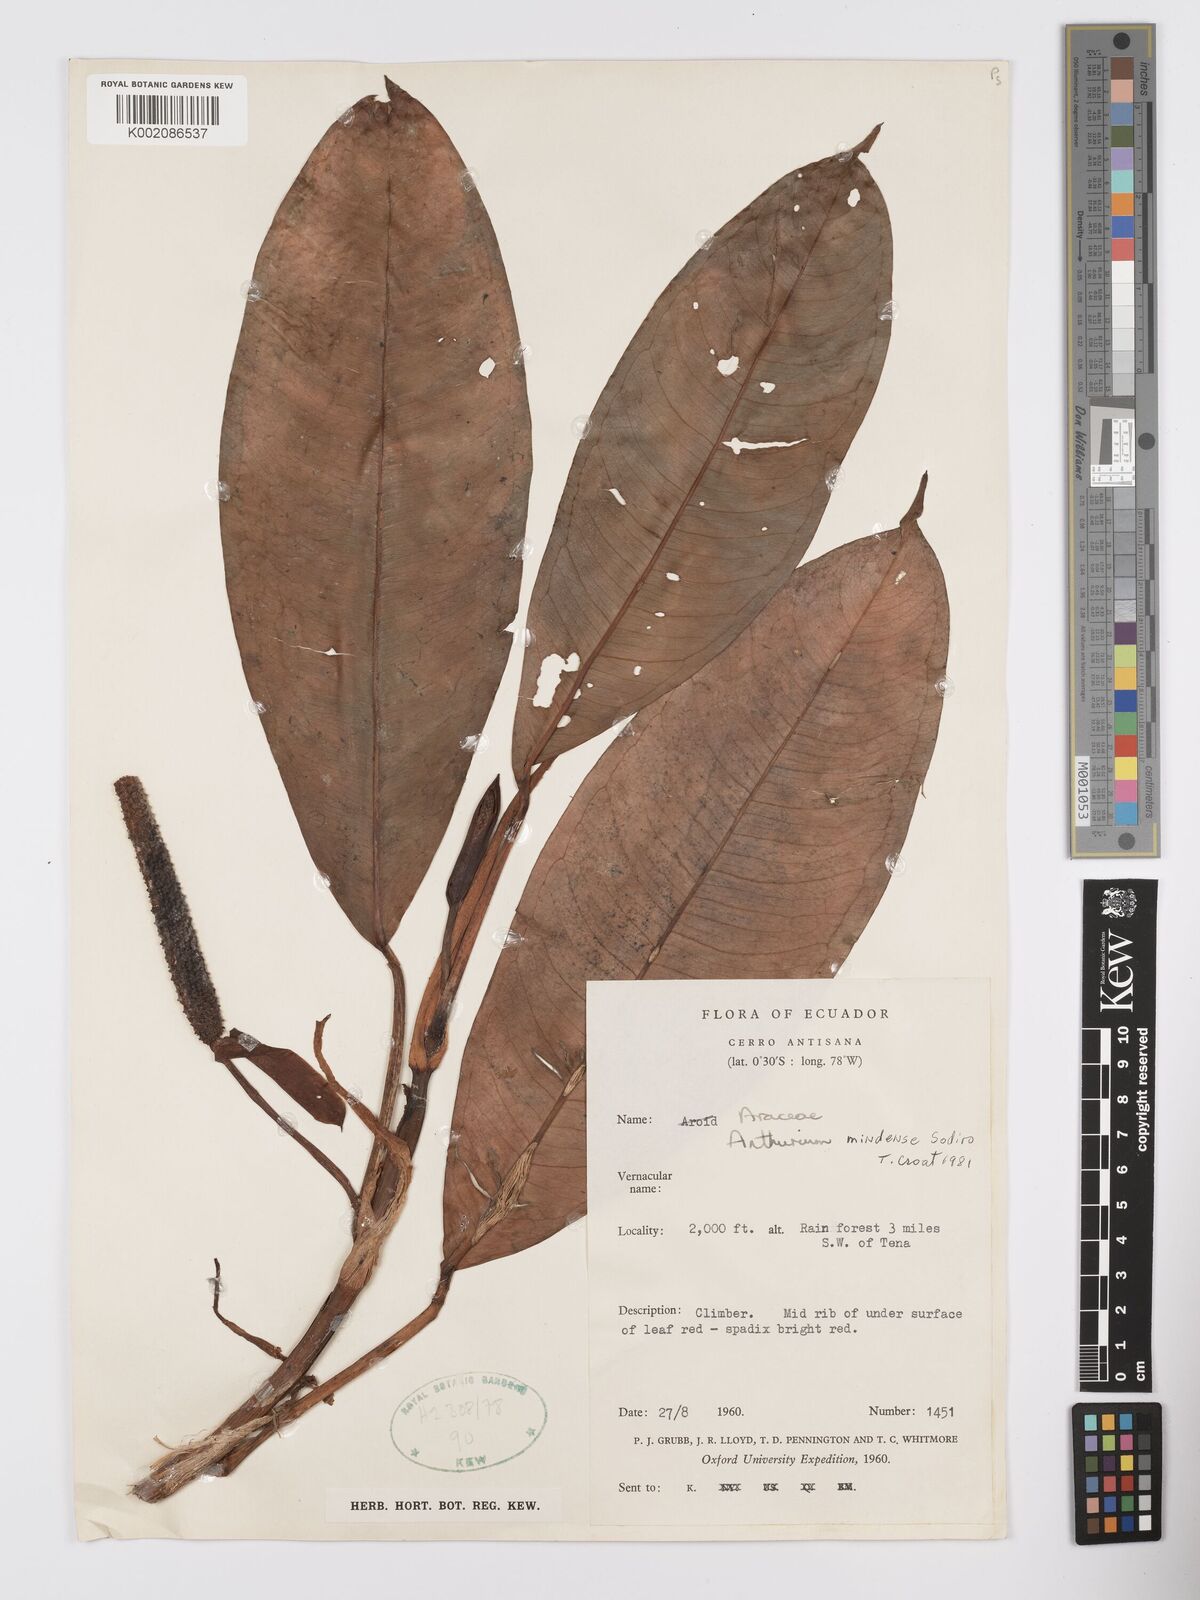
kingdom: Plantae
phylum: Tracheophyta
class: Liliopsida
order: Alismatales
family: Araceae
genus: Anthurium
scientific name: Anthurium mindense
